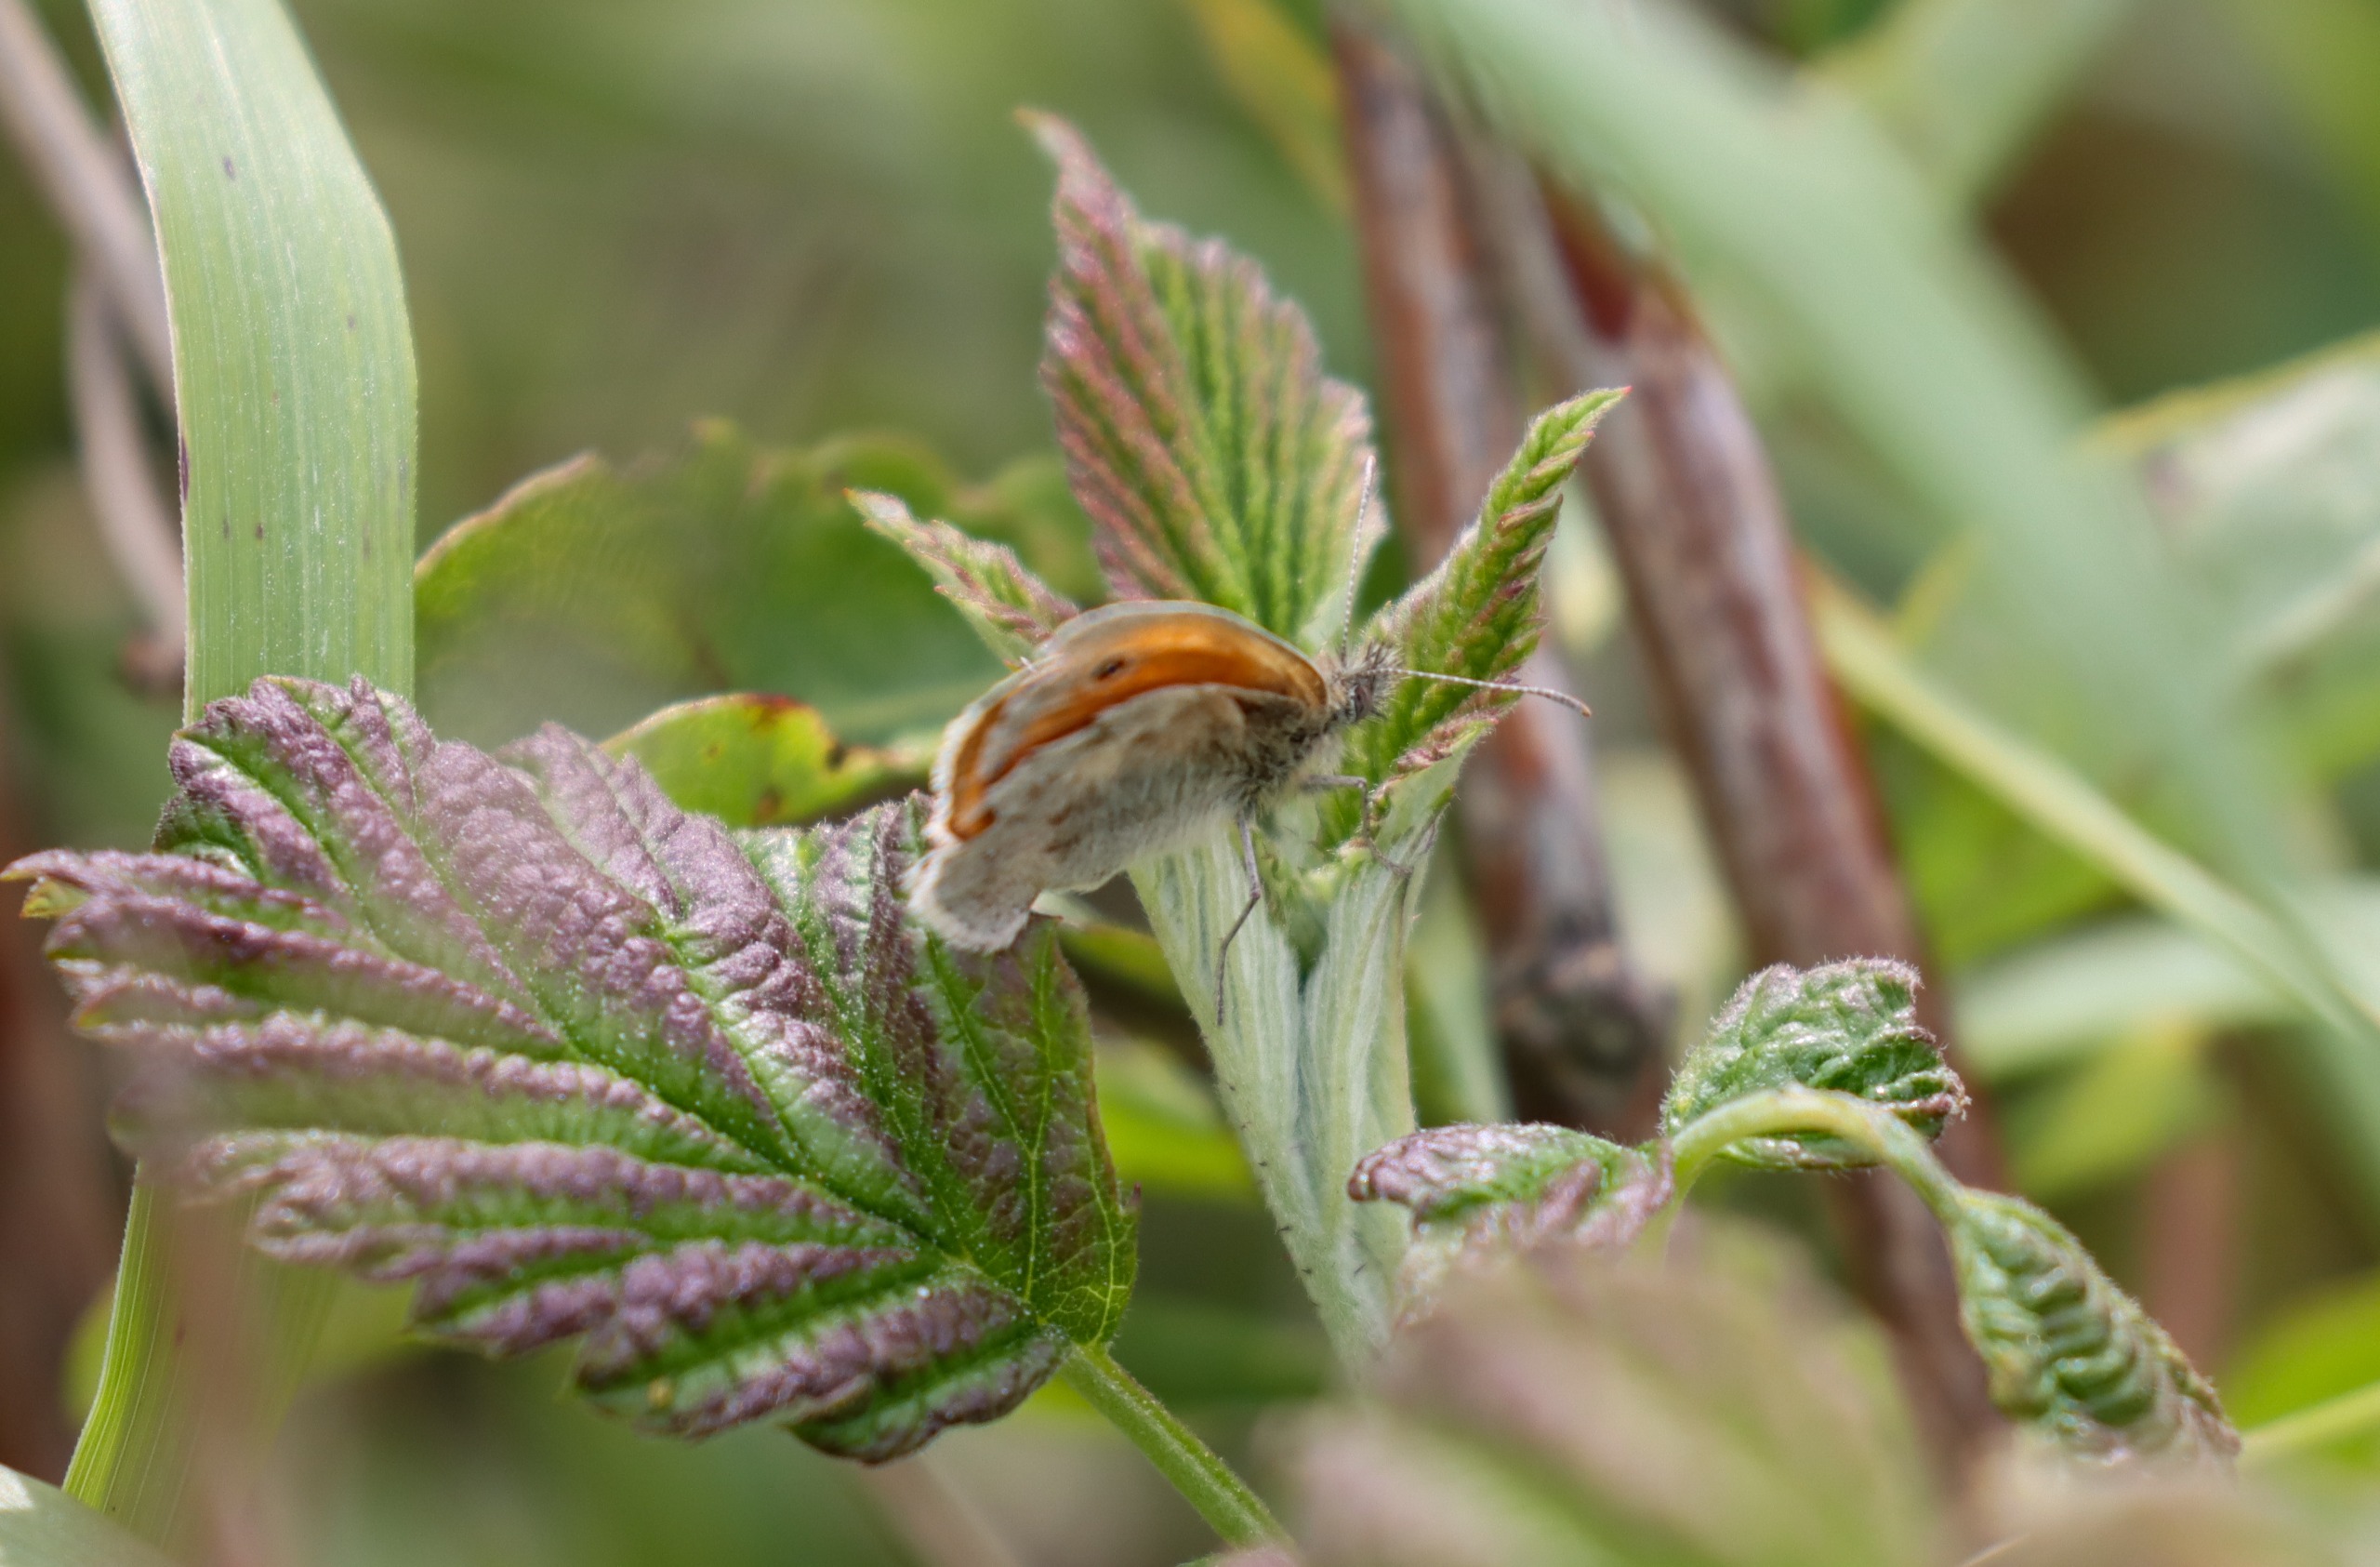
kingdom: Animalia
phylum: Arthropoda
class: Insecta
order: Lepidoptera
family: Nymphalidae
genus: Coenonympha
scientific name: Coenonympha pamphilus
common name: Okkergul randøje
